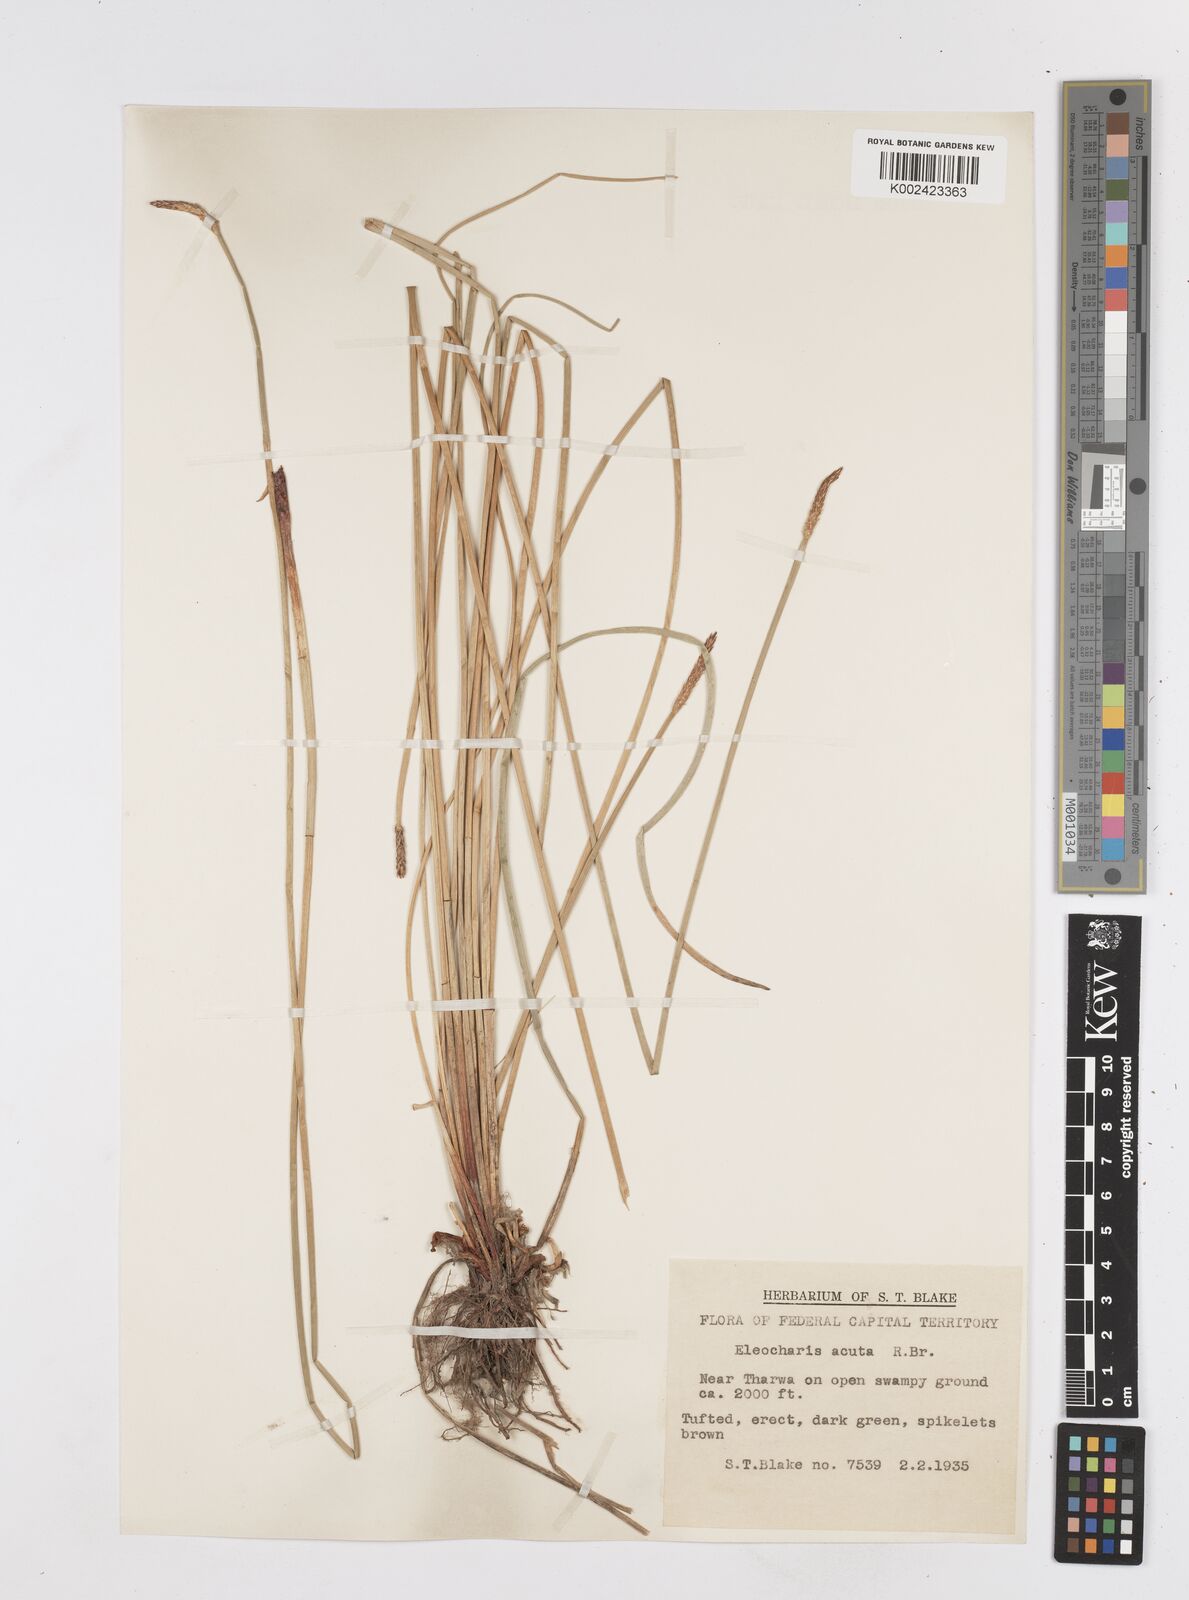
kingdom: Plantae
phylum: Tracheophyta
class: Liliopsida
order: Poales
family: Cyperaceae
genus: Eleocharis
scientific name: Eleocharis acuta
